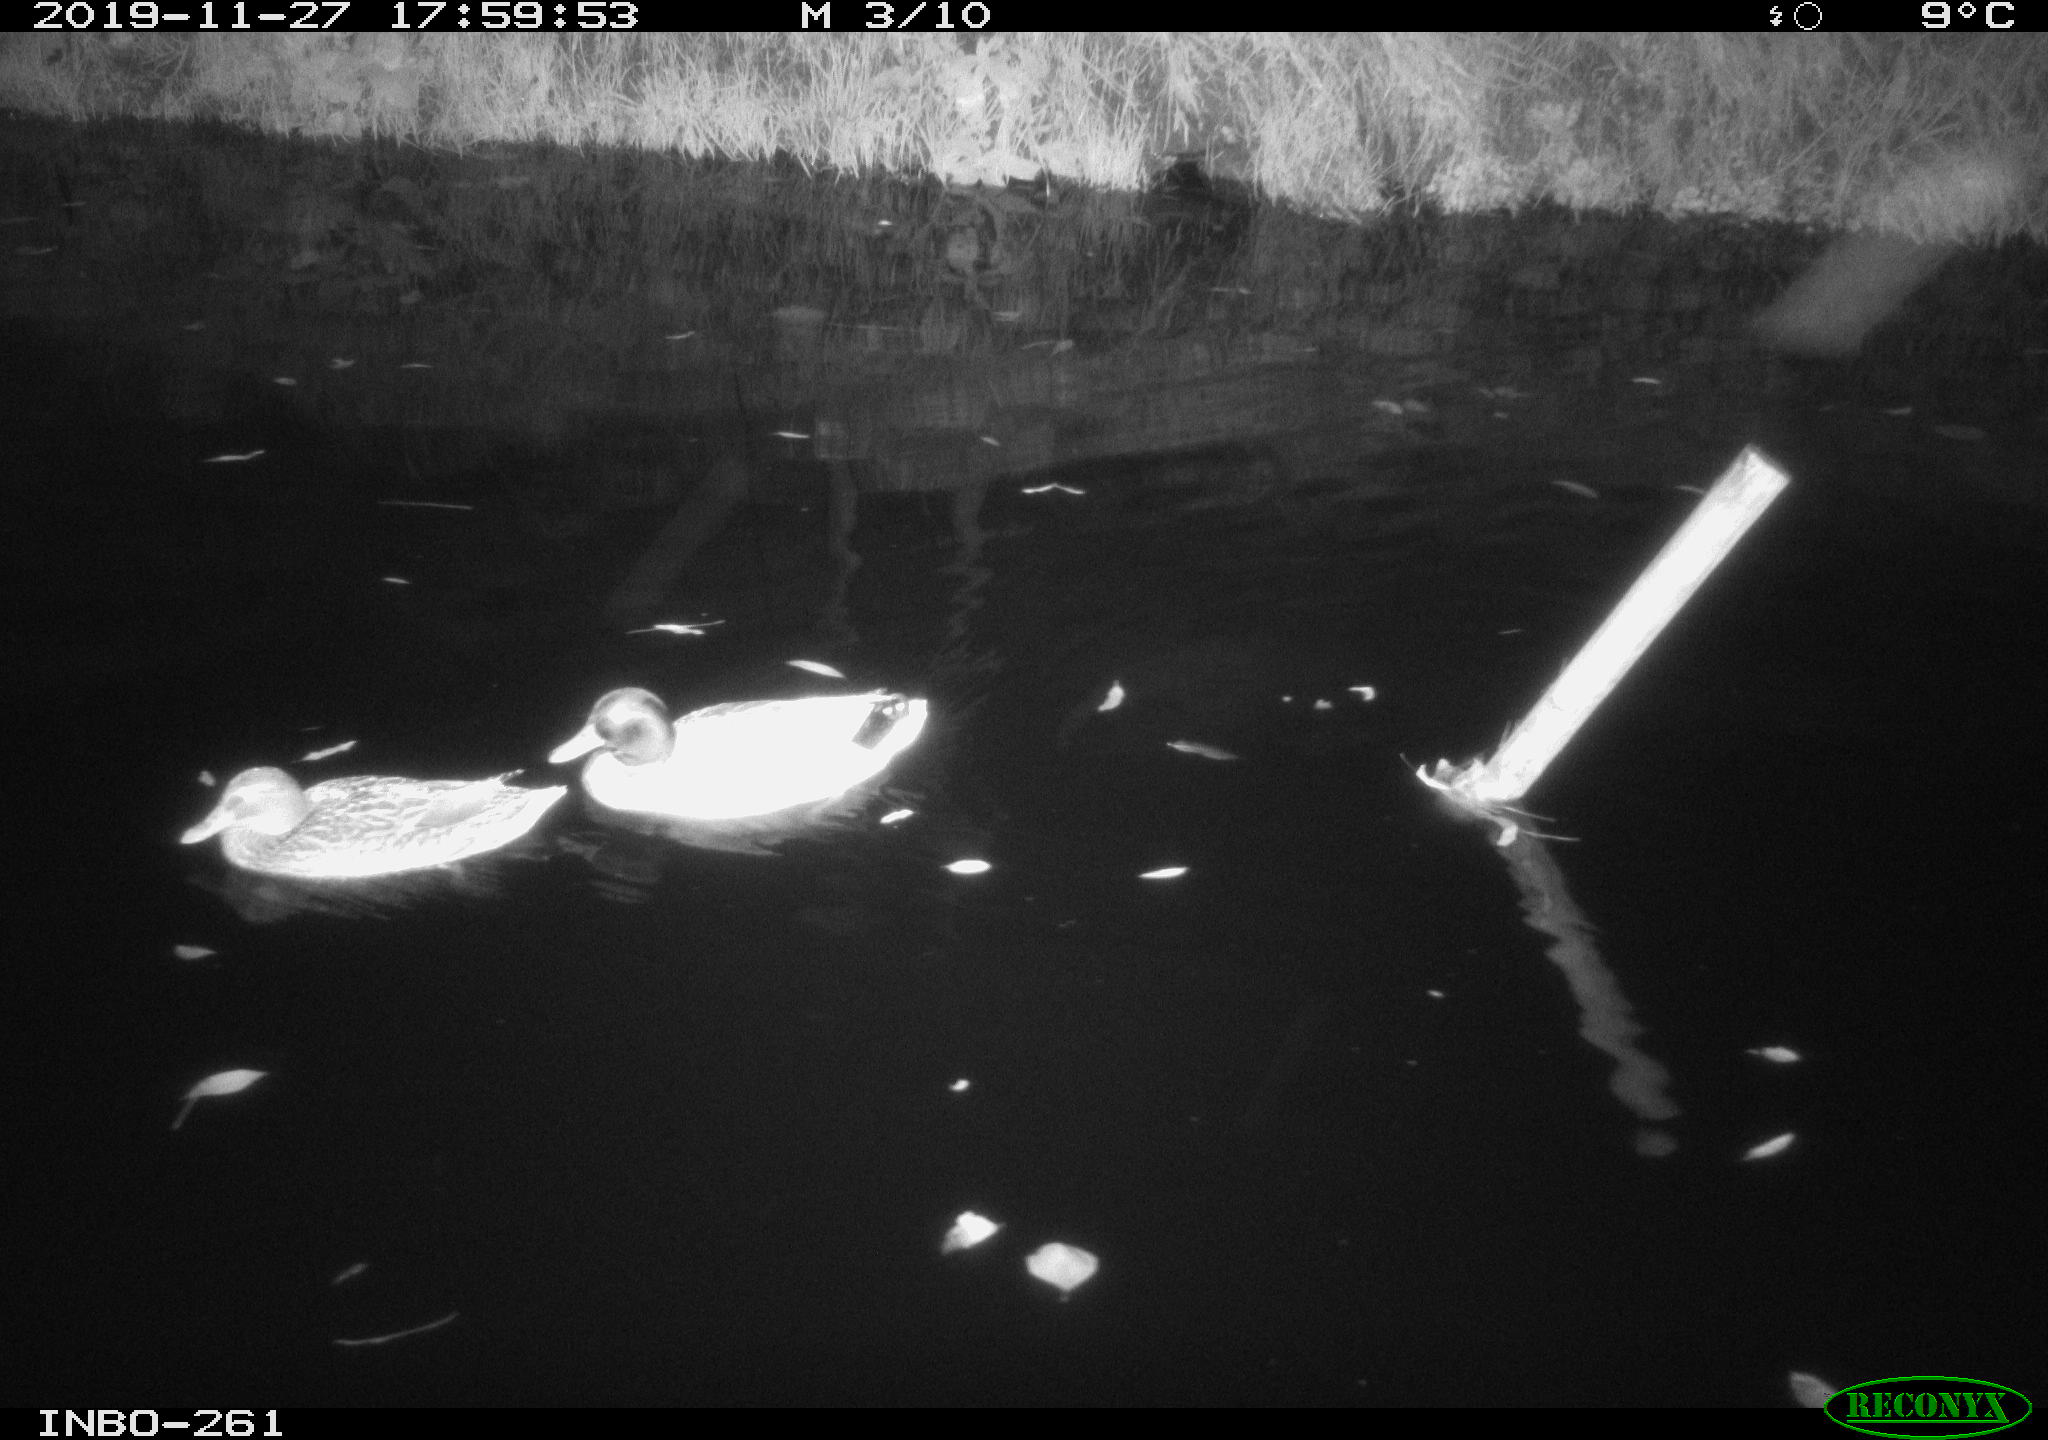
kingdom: Animalia
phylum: Chordata
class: Aves
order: Anseriformes
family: Anatidae
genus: Anas
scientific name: Anas platyrhynchos
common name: Mallard
